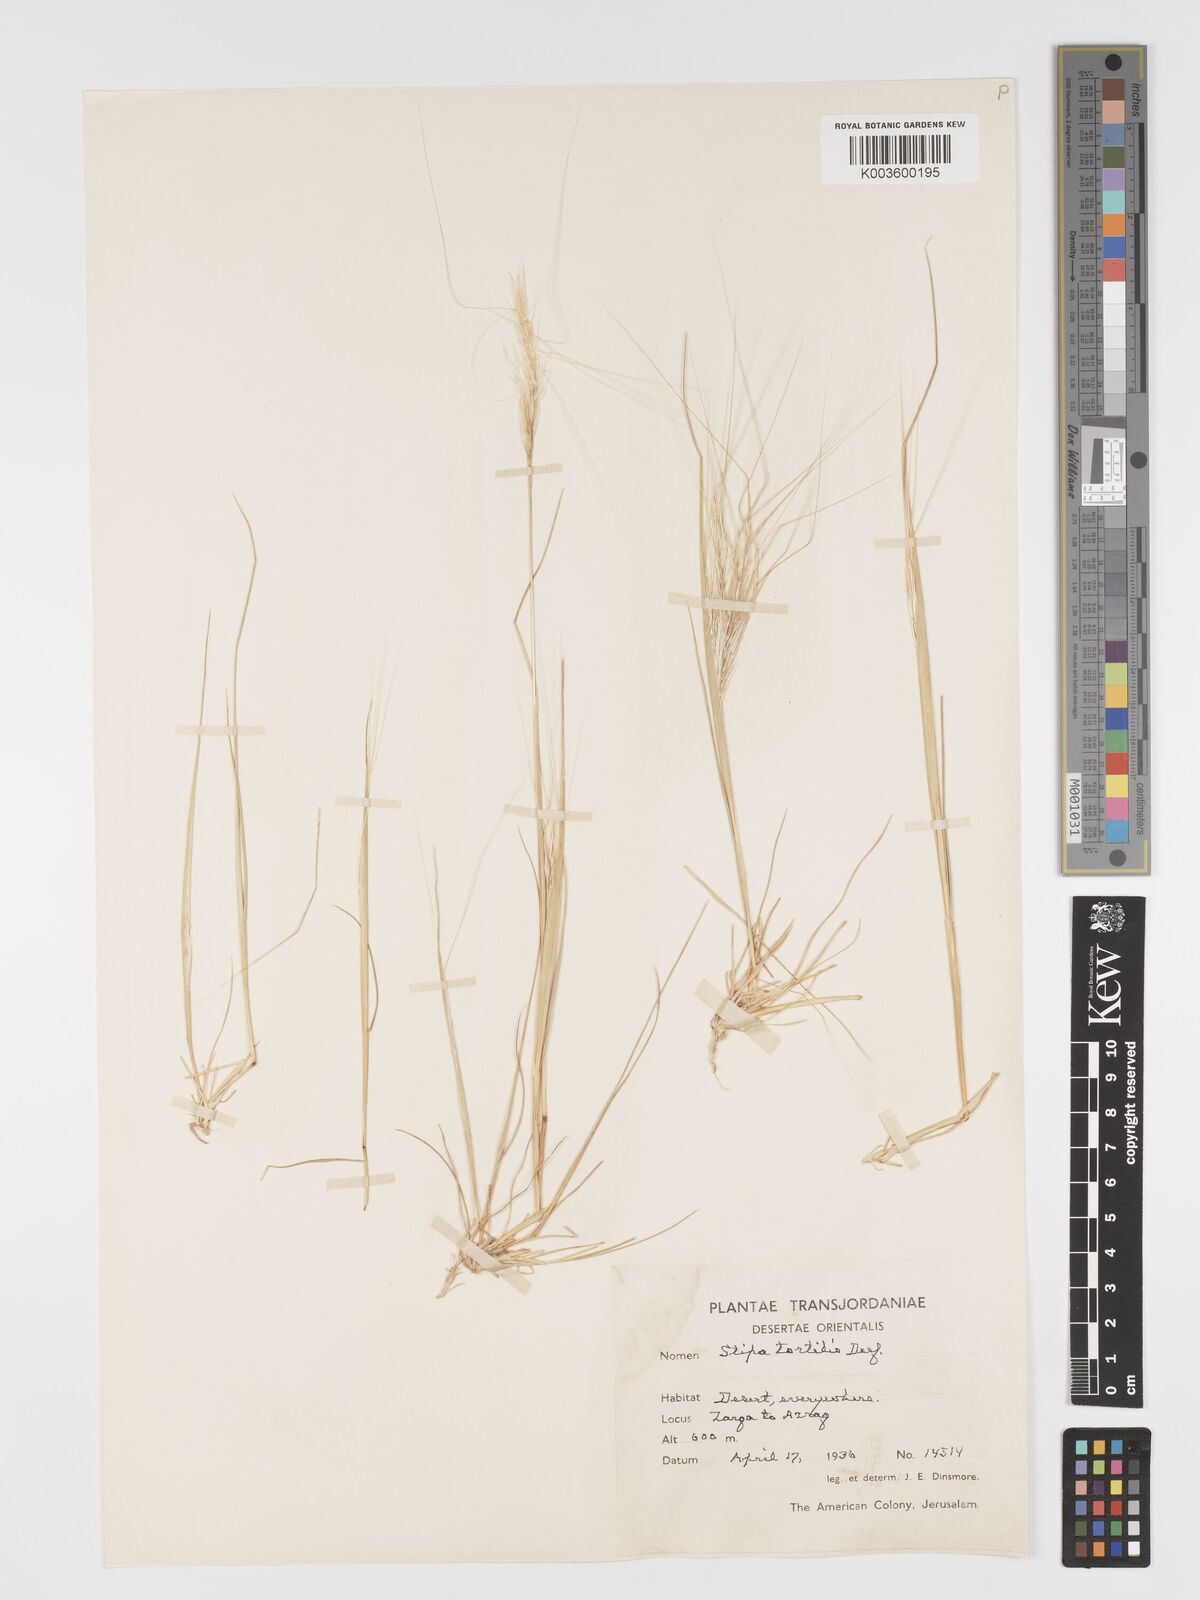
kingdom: Plantae
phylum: Tracheophyta
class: Liliopsida
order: Poales
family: Poaceae
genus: Stipellula
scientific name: Stipellula capensis
